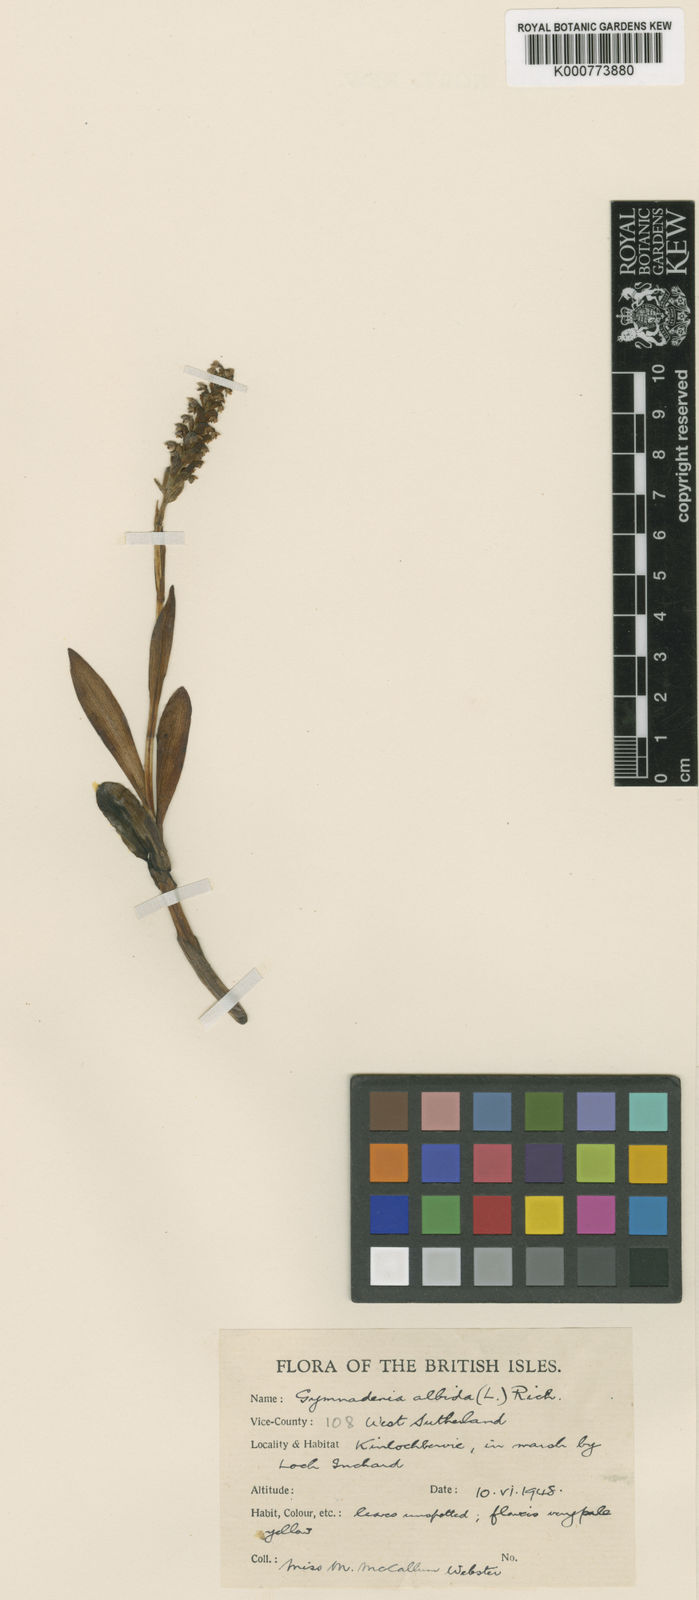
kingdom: Plantae
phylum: Tracheophyta
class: Liliopsida
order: Asparagales
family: Orchidaceae
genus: Pseudorchis
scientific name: Pseudorchis
